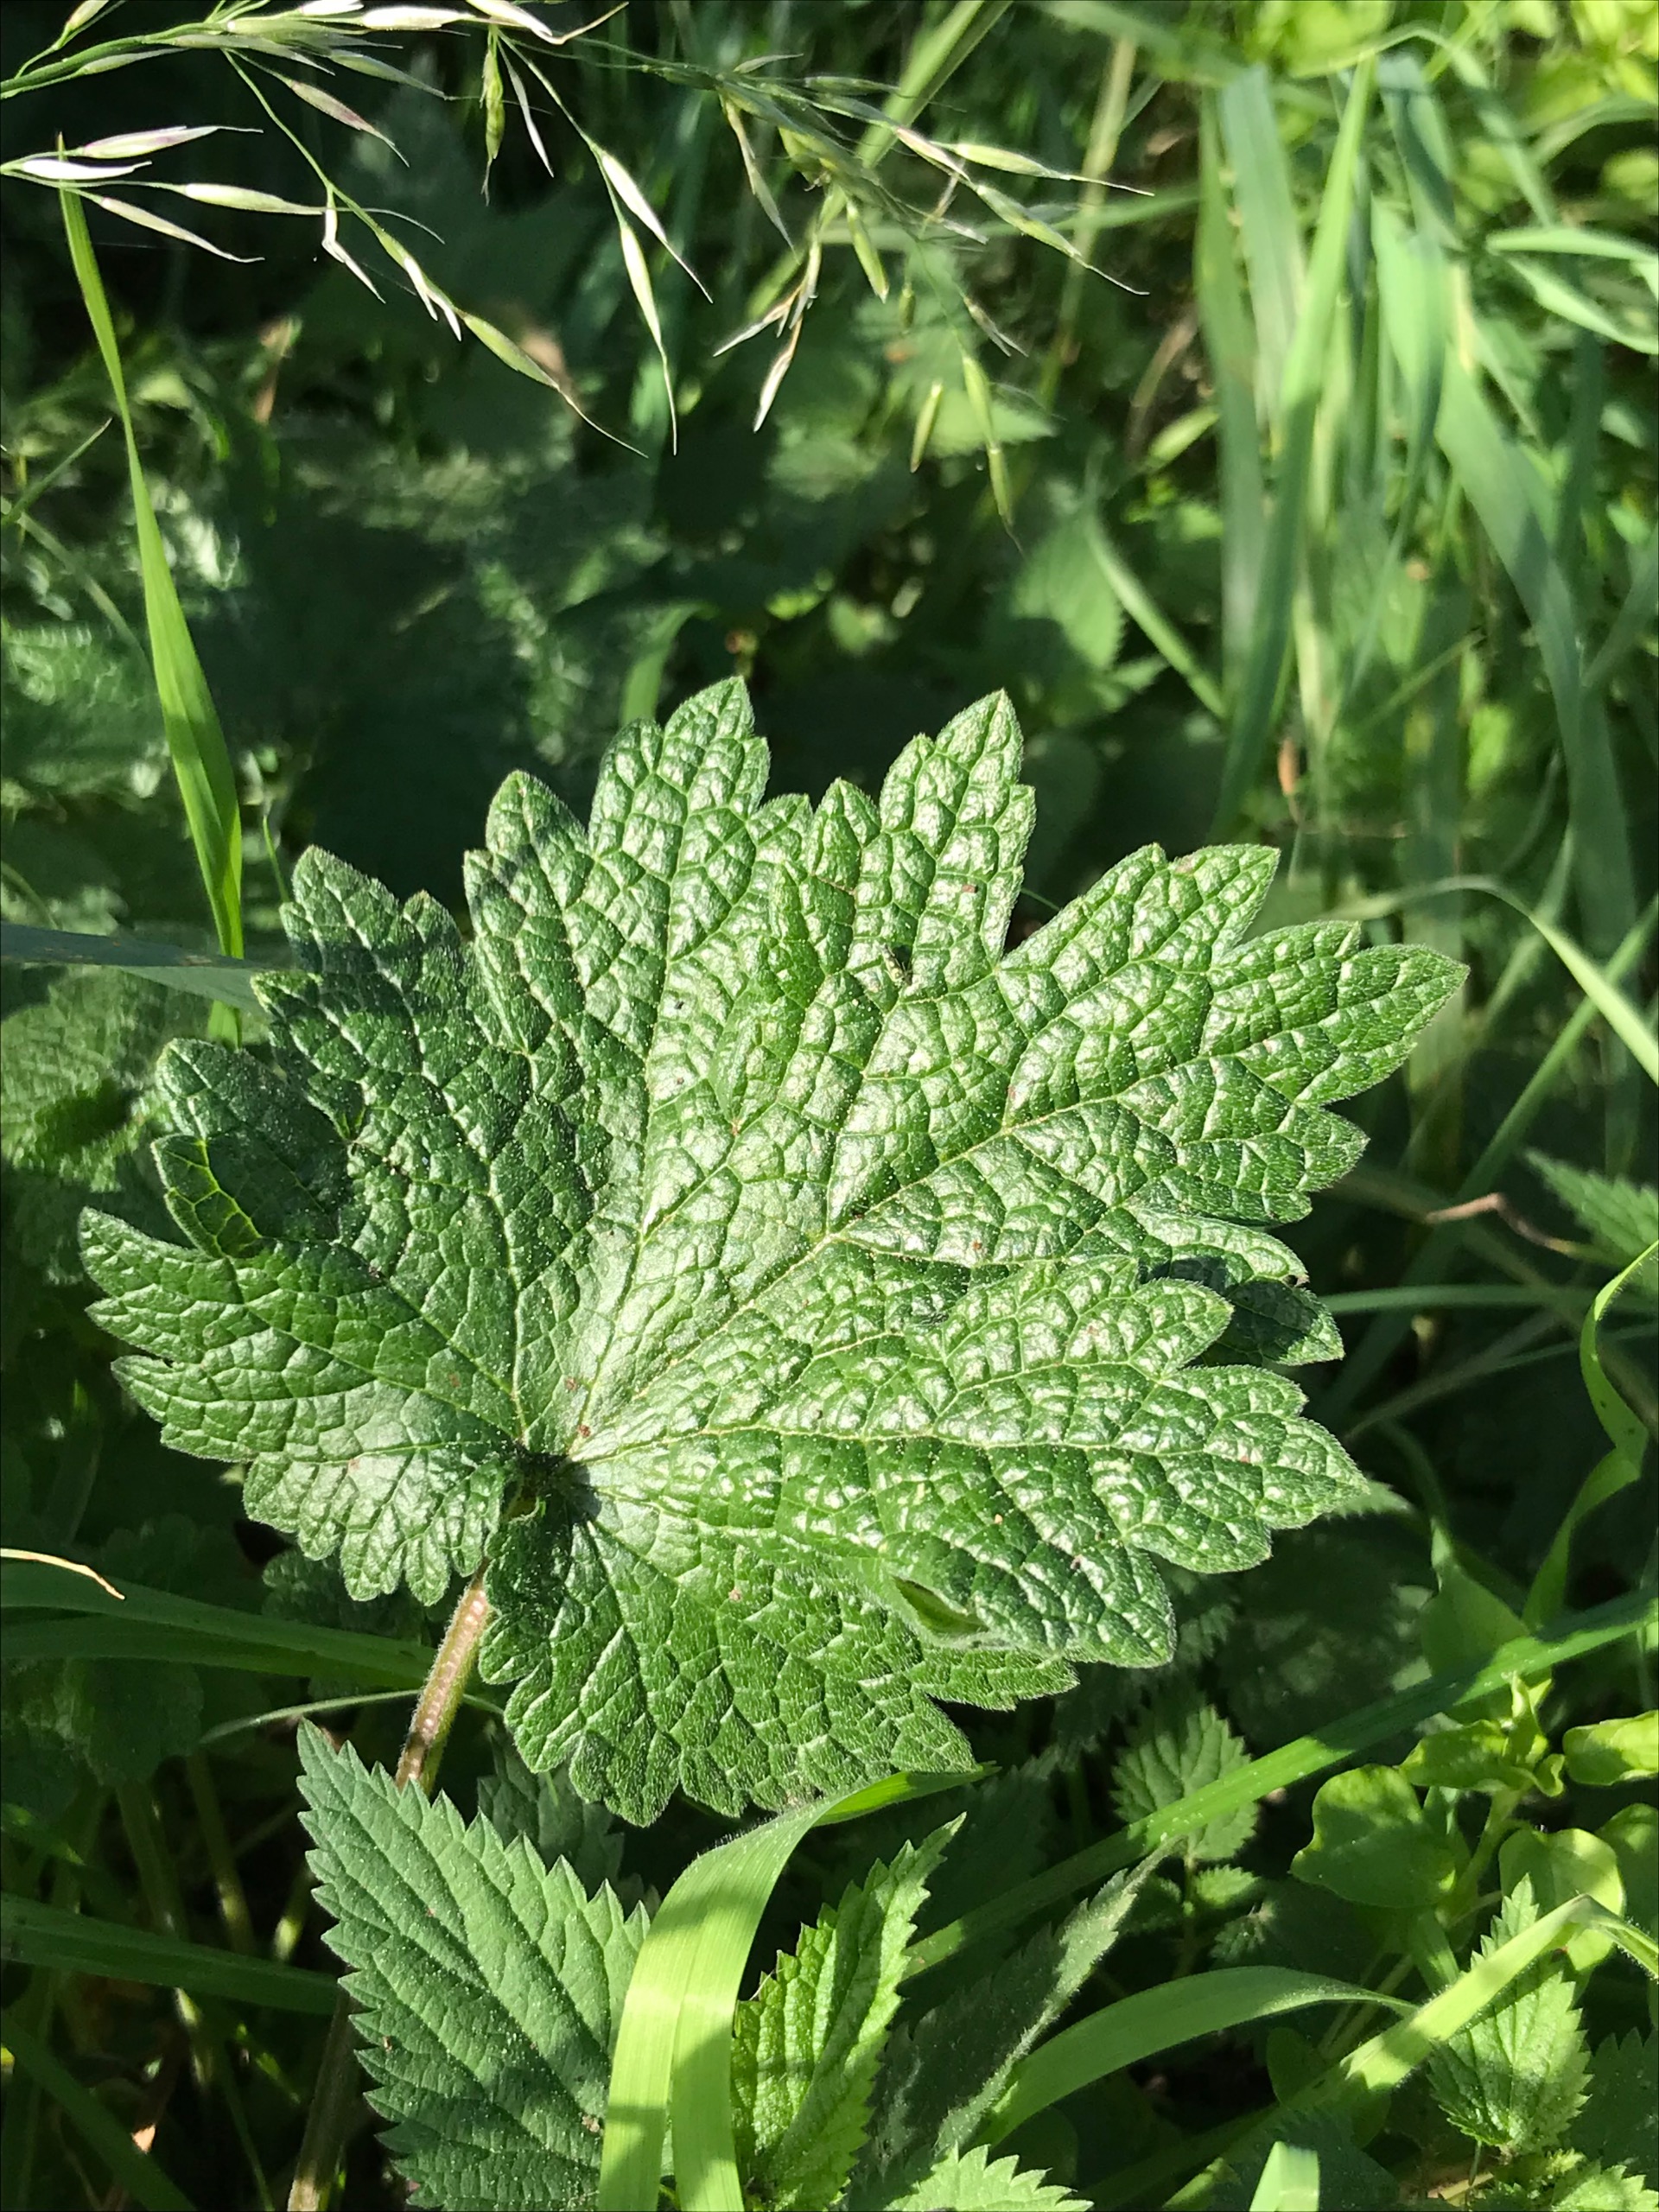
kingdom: Plantae
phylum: Tracheophyta
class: Magnoliopsida
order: Lamiales
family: Lamiaceae
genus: Leonurus
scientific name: Leonurus cardiaca
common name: Hjertespand
